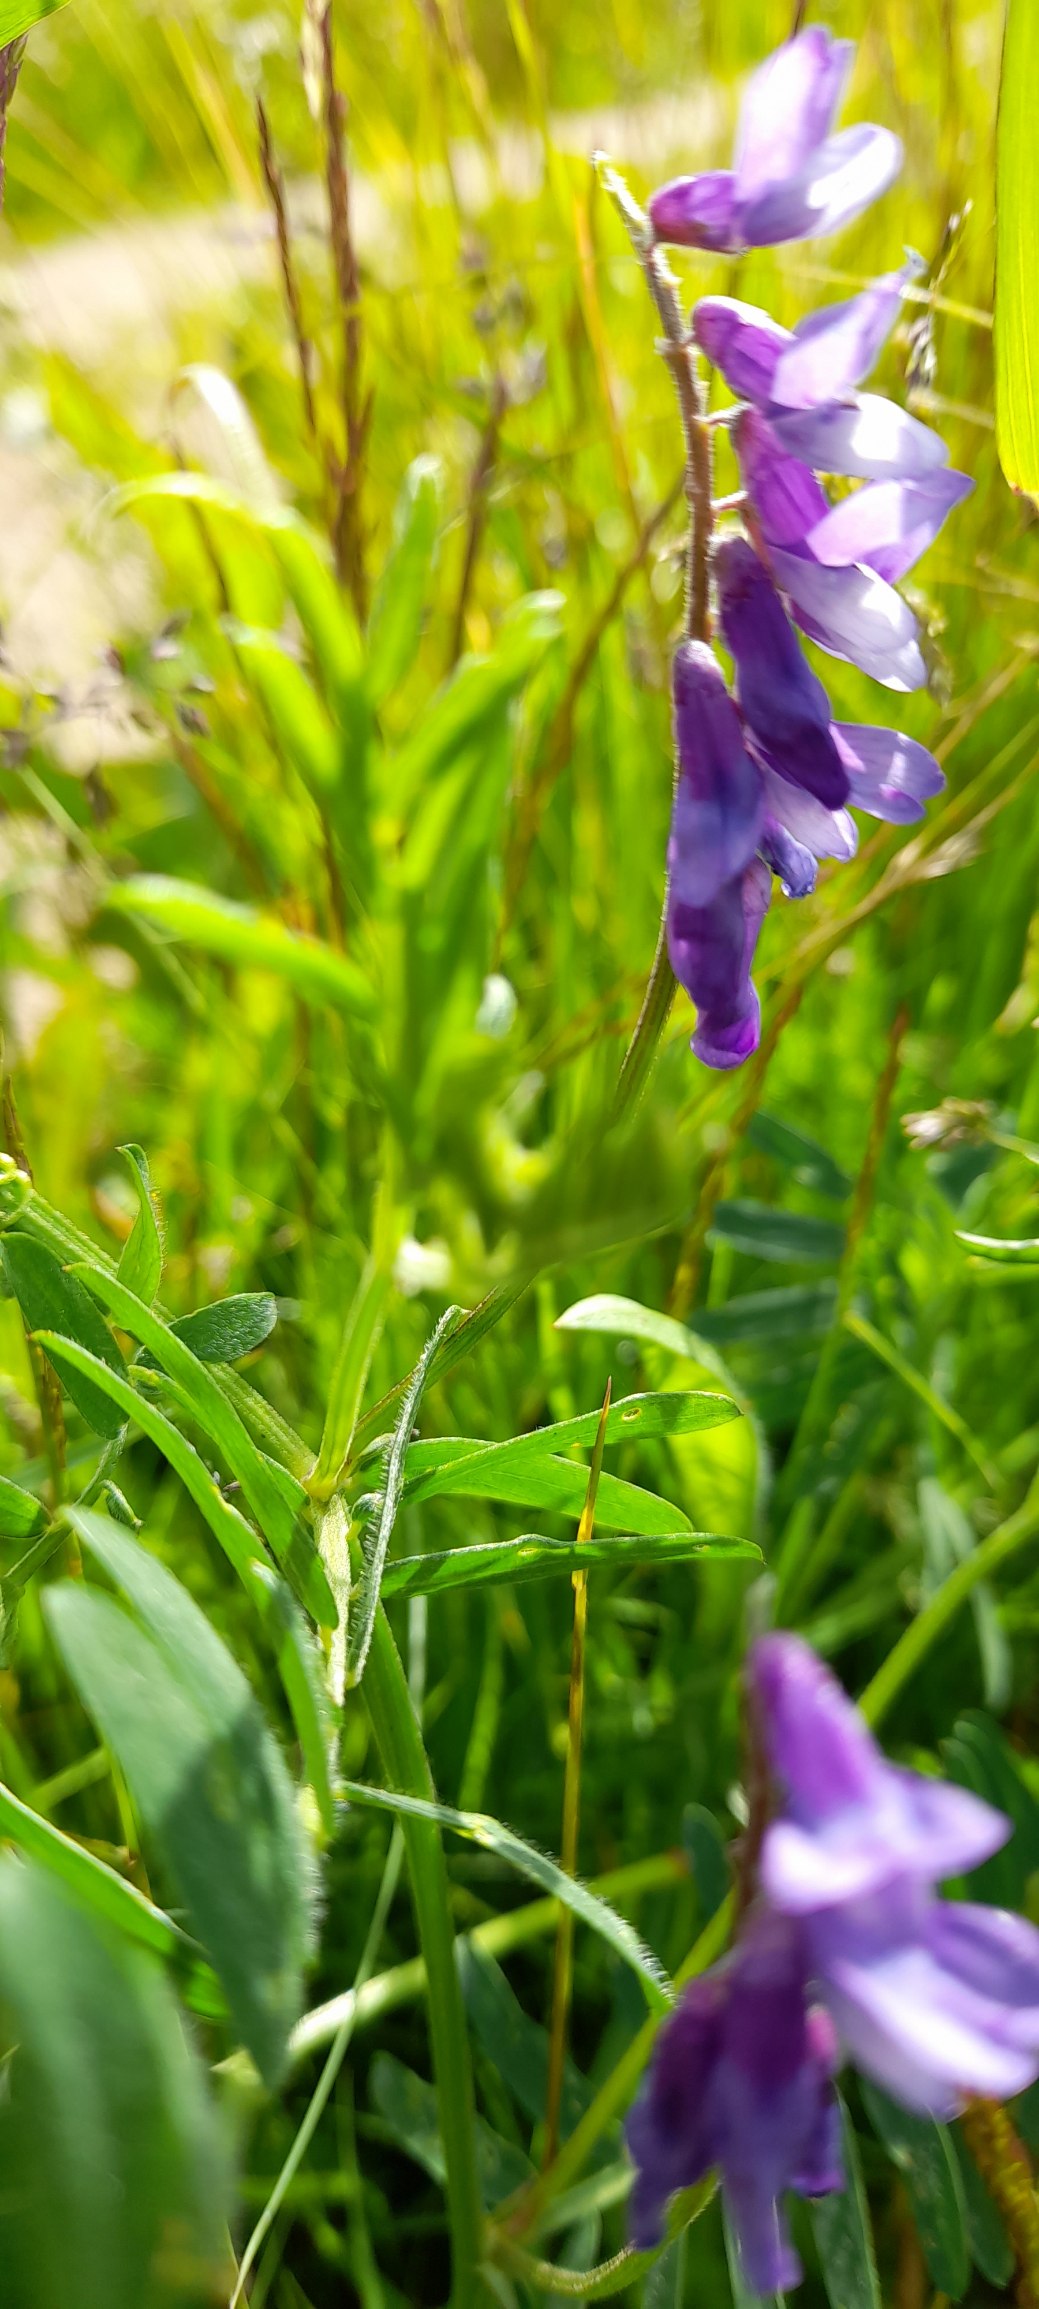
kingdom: Plantae
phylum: Tracheophyta
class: Magnoliopsida
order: Fabales
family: Fabaceae
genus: Vicia
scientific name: Vicia cracca
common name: Muse-vikke
